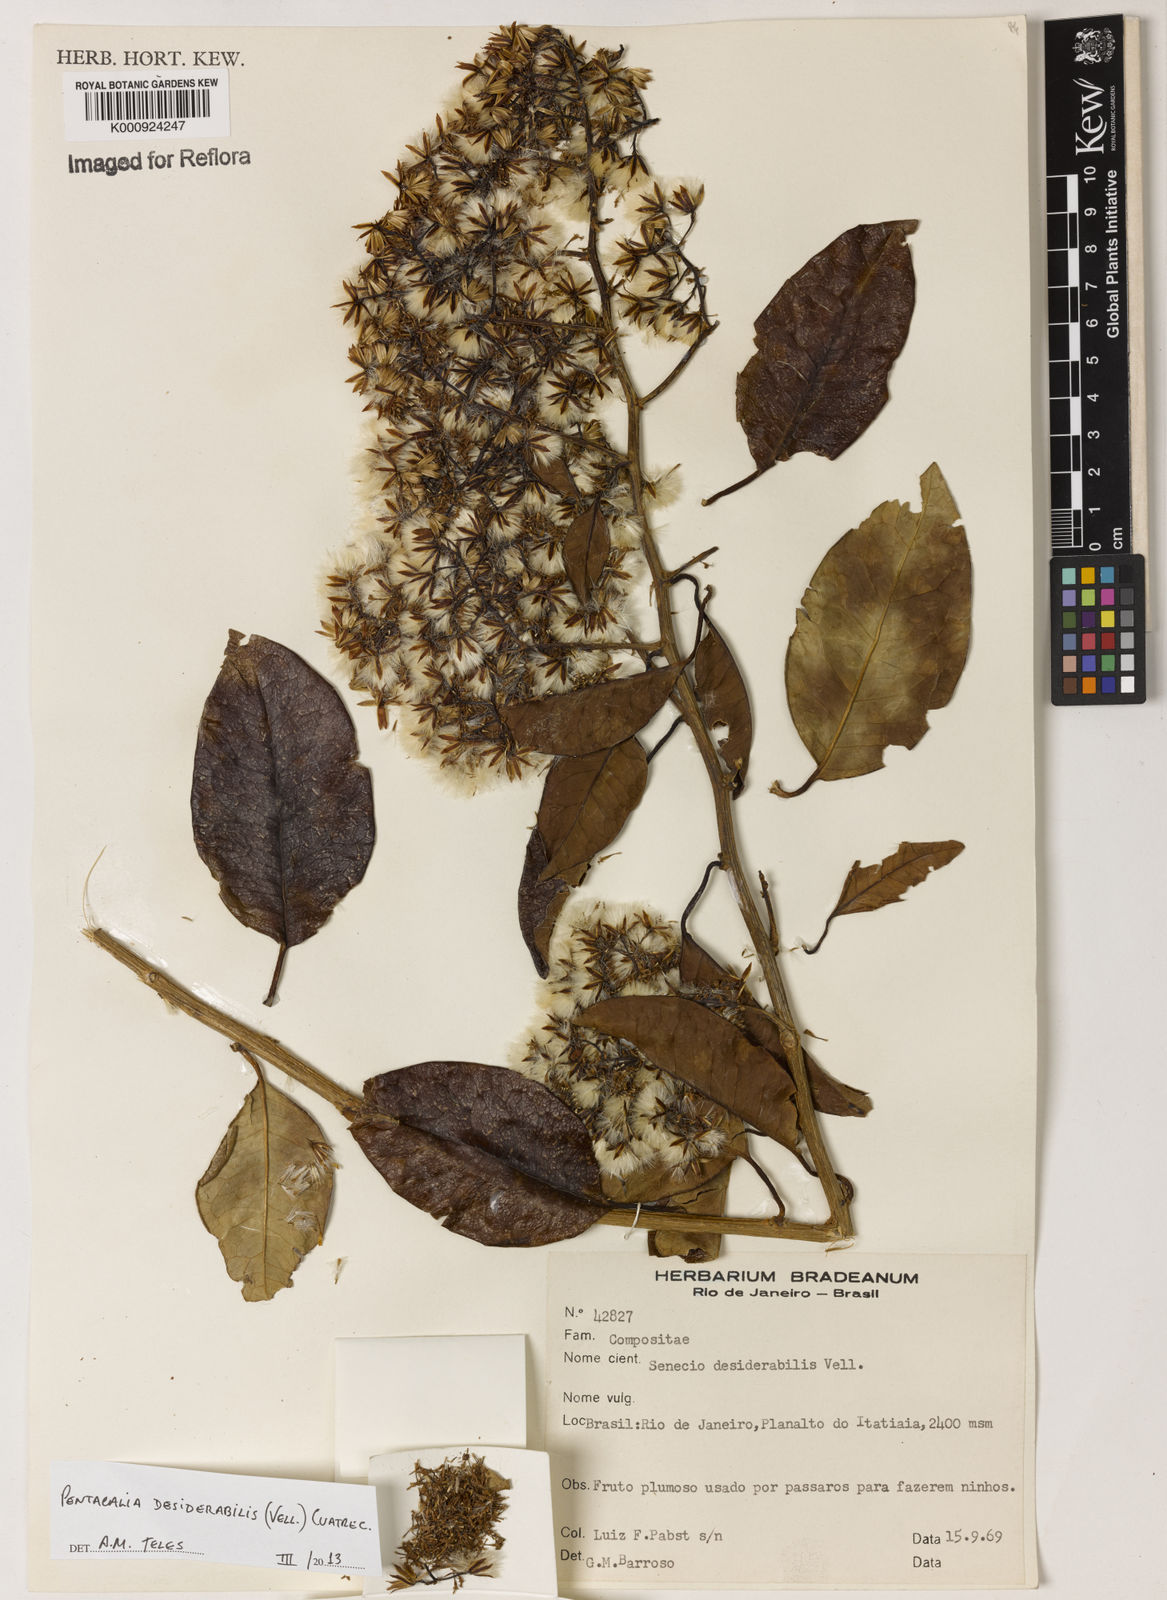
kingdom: Plantae
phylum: Tracheophyta
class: Magnoliopsida
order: Asterales
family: Asteraceae
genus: Pentacalia
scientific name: Pentacalia desiderabilis
